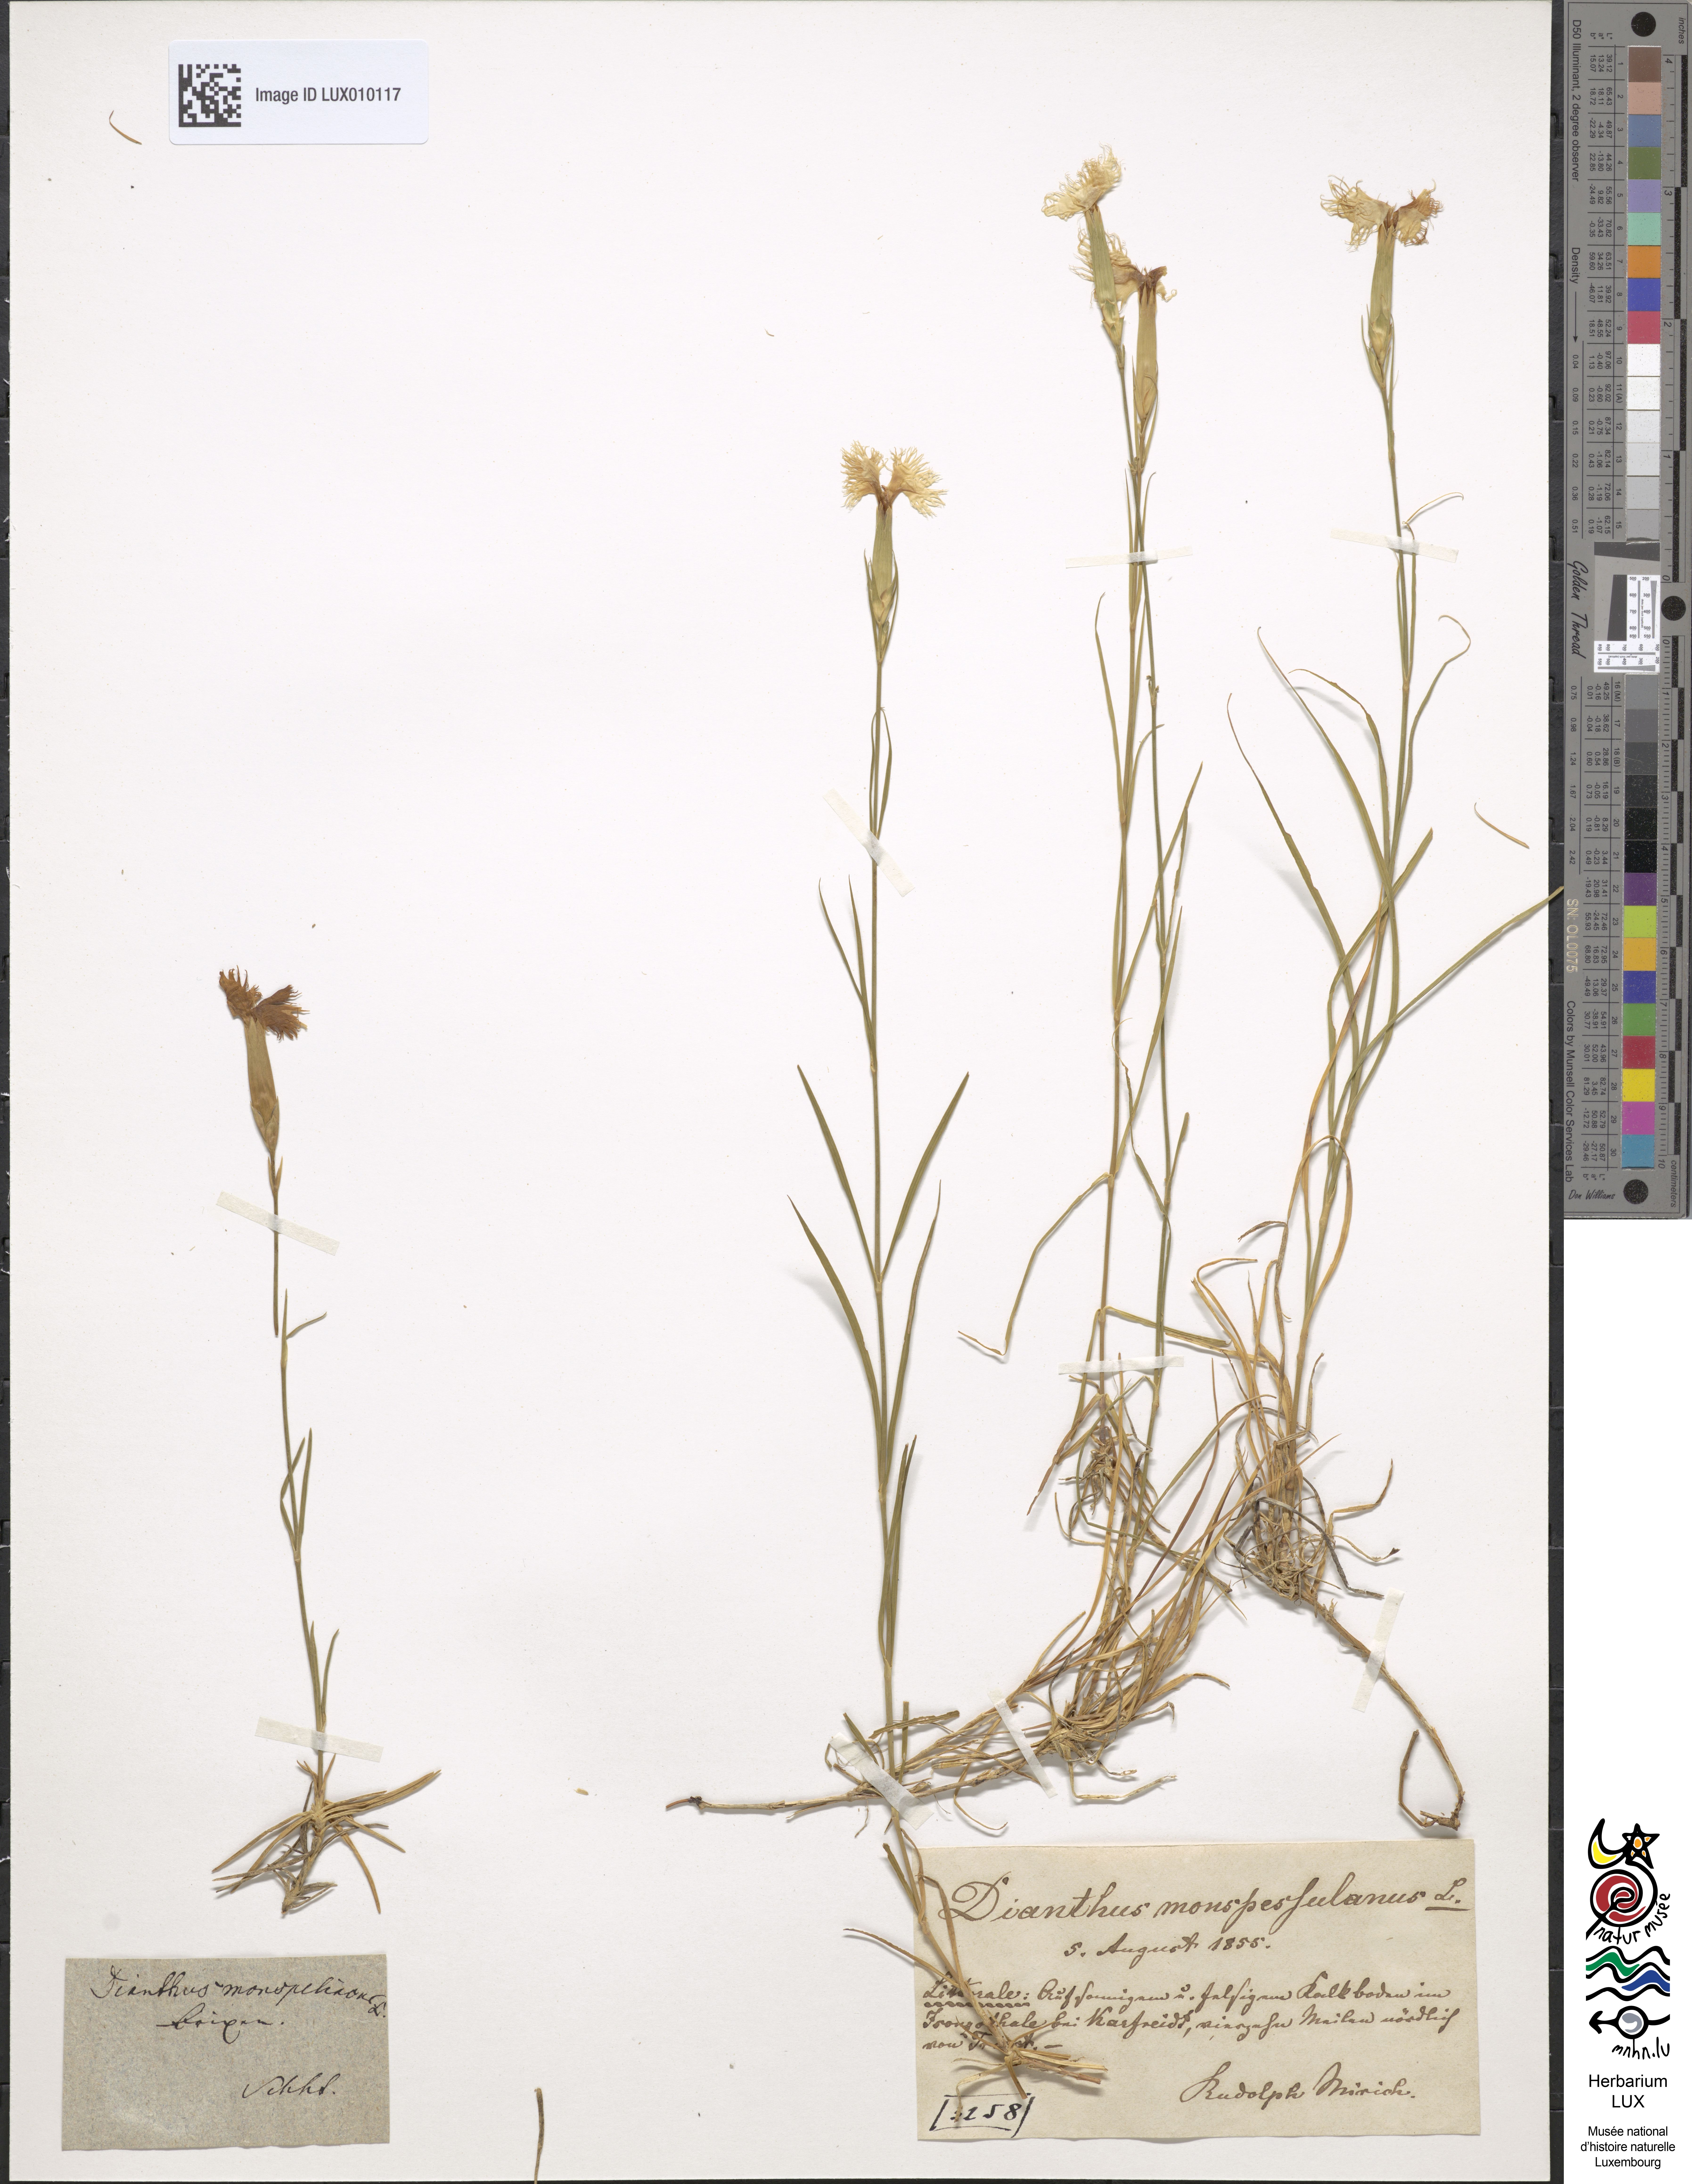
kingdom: Plantae
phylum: Tracheophyta
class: Magnoliopsida
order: Caryophyllales
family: Caryophyllaceae
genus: Dianthus
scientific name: Dianthus hyssopifolius
